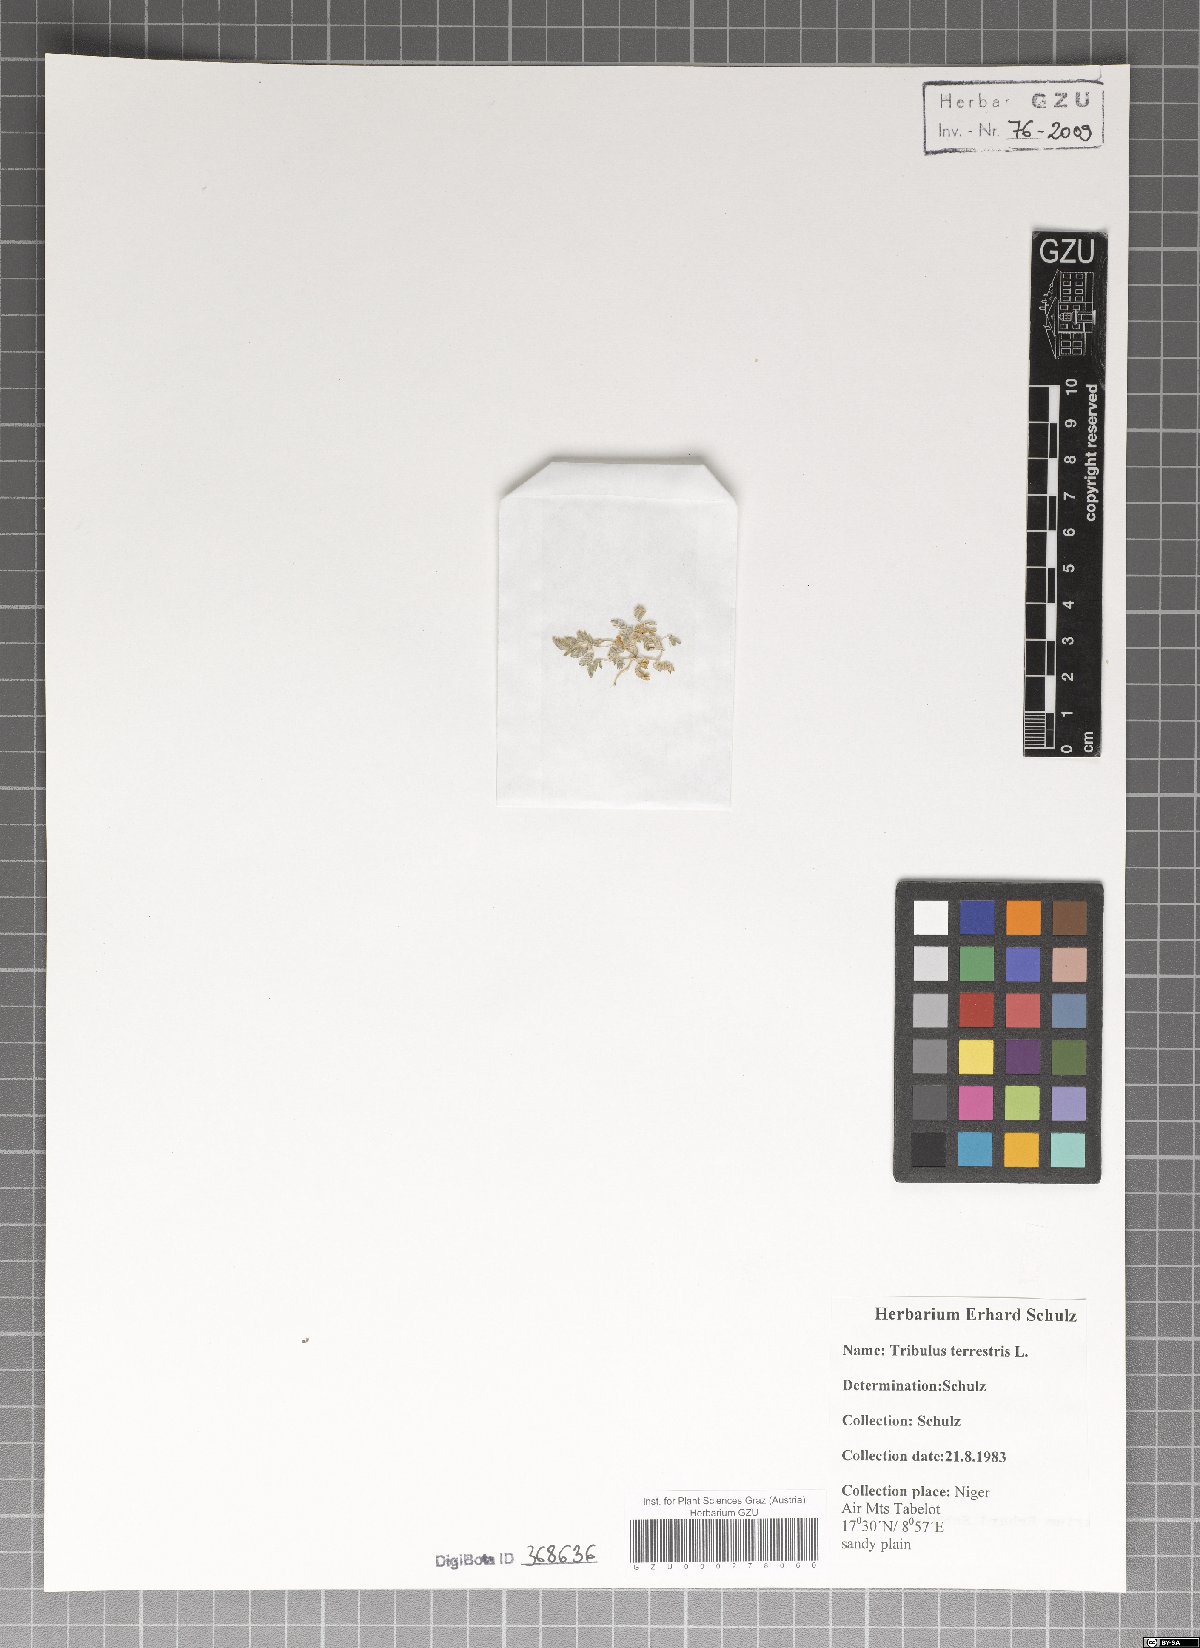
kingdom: Plantae
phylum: Tracheophyta
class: Magnoliopsida
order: Zygophyllales
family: Zygophyllaceae
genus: Tribulus
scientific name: Tribulus terrestris
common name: Puncturevine
